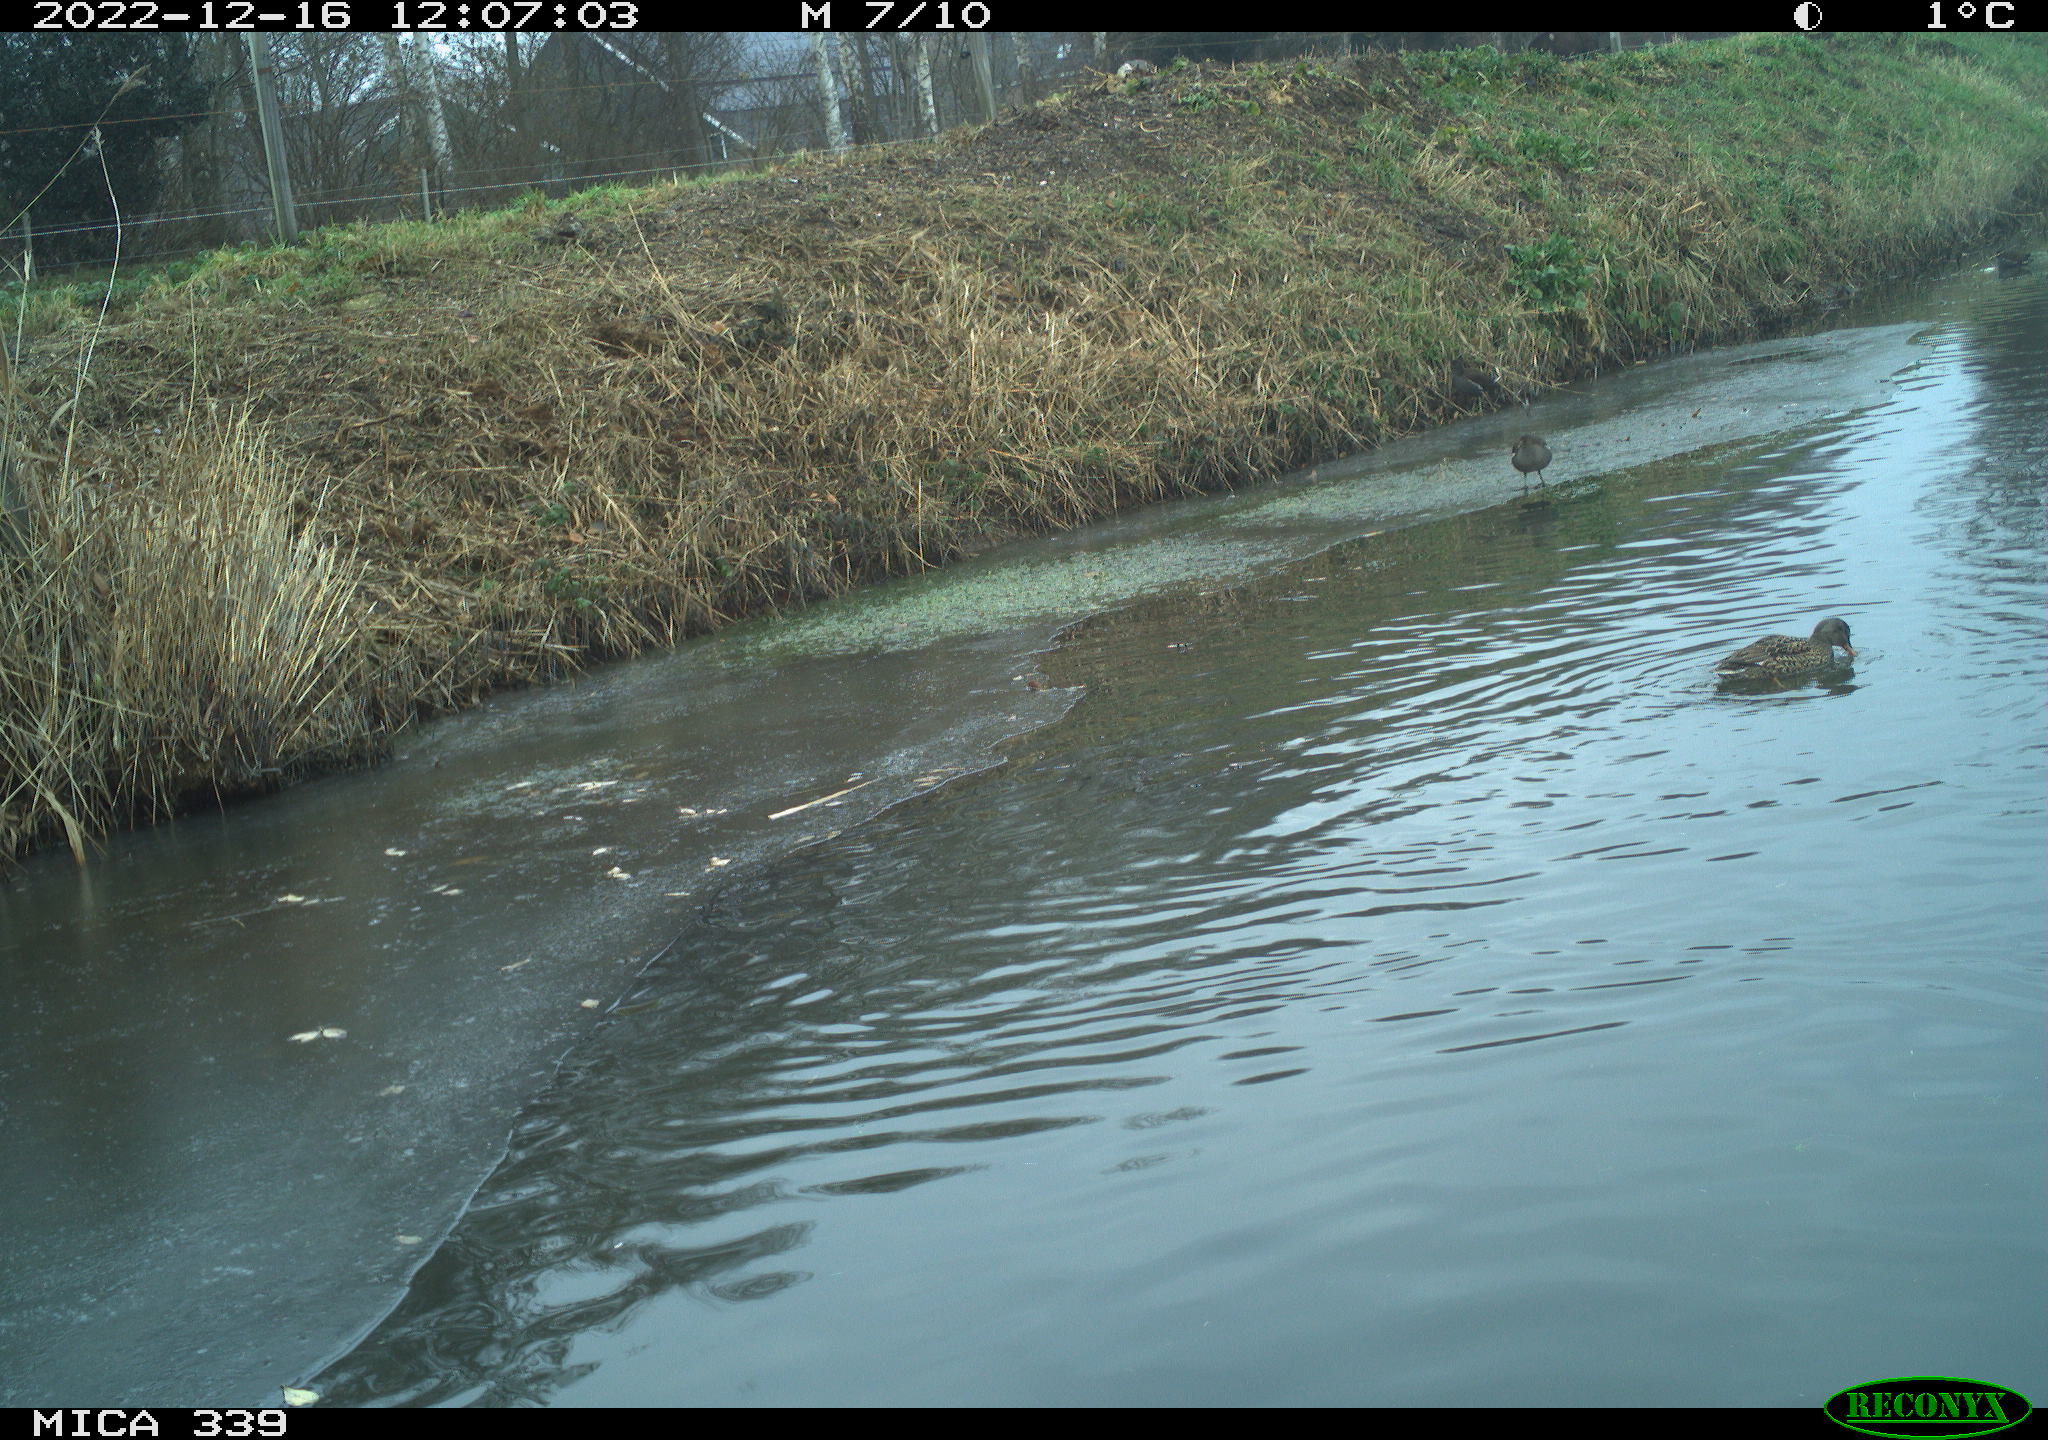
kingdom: Animalia
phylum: Chordata
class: Aves
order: Anseriformes
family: Anatidae
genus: Anas
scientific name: Anas
